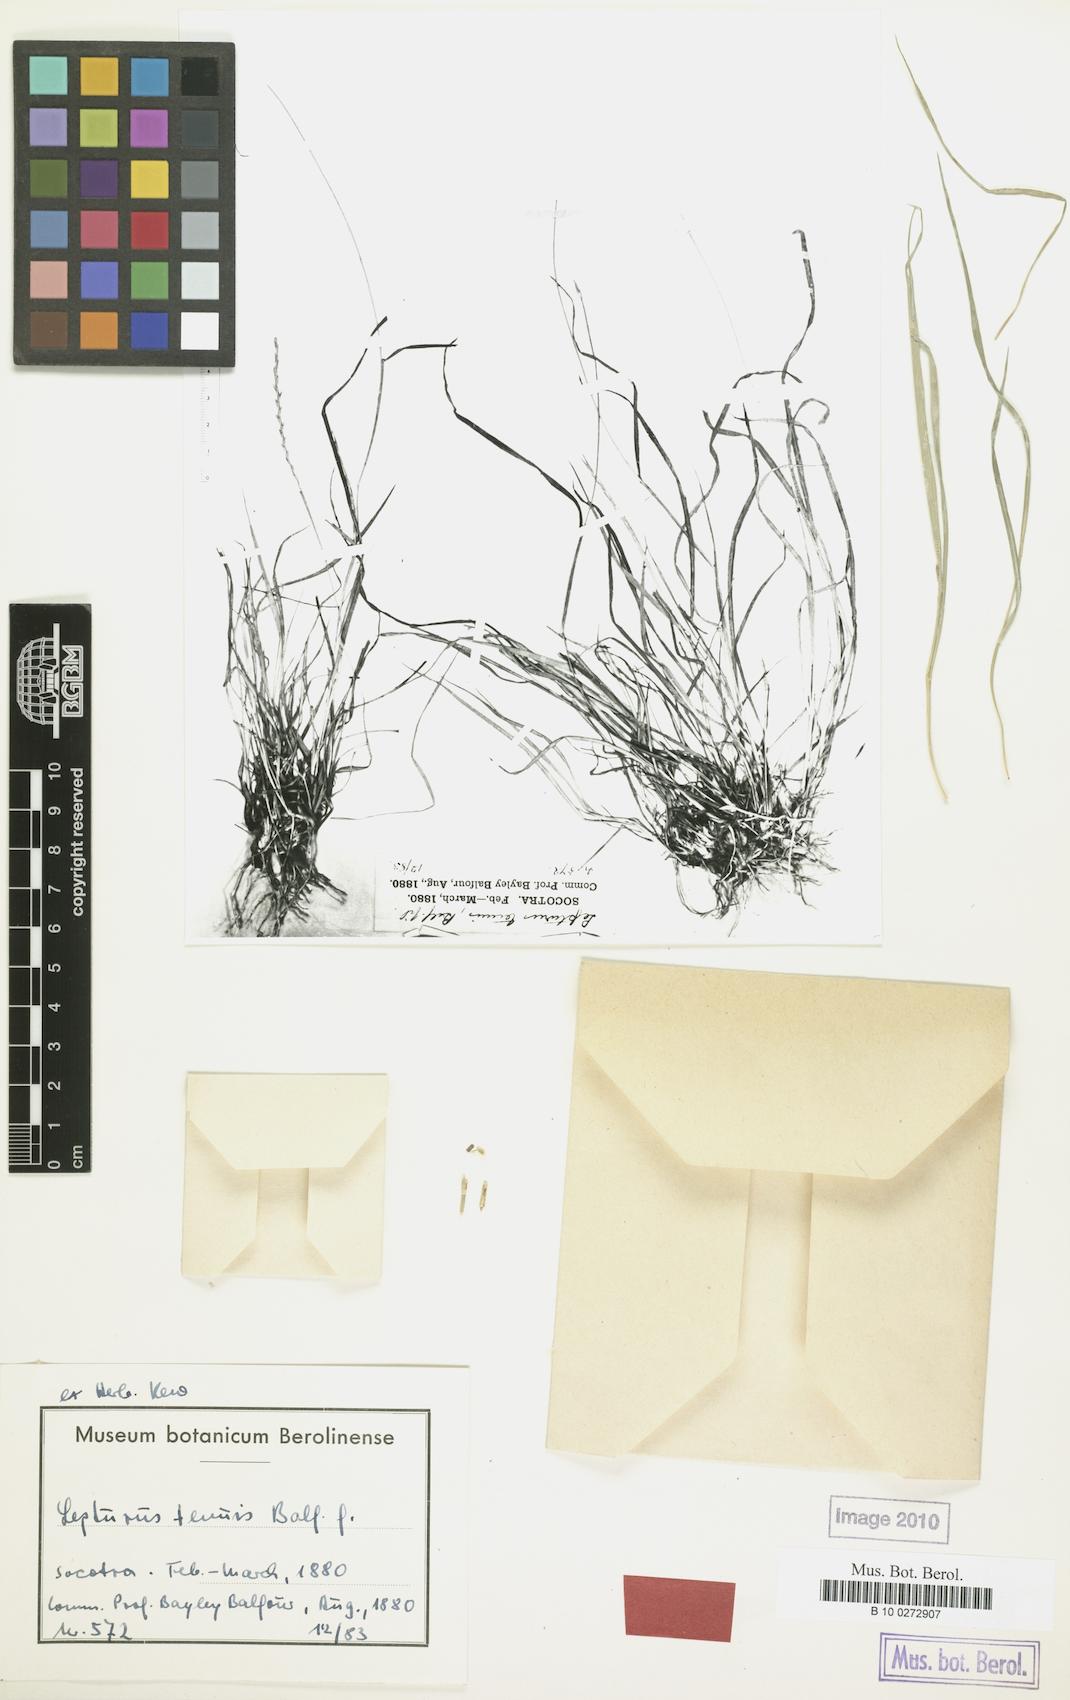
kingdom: Plantae
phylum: Tracheophyta
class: Liliopsida
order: Poales
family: Poaceae
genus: Lepturus
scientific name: Lepturus tenuis
